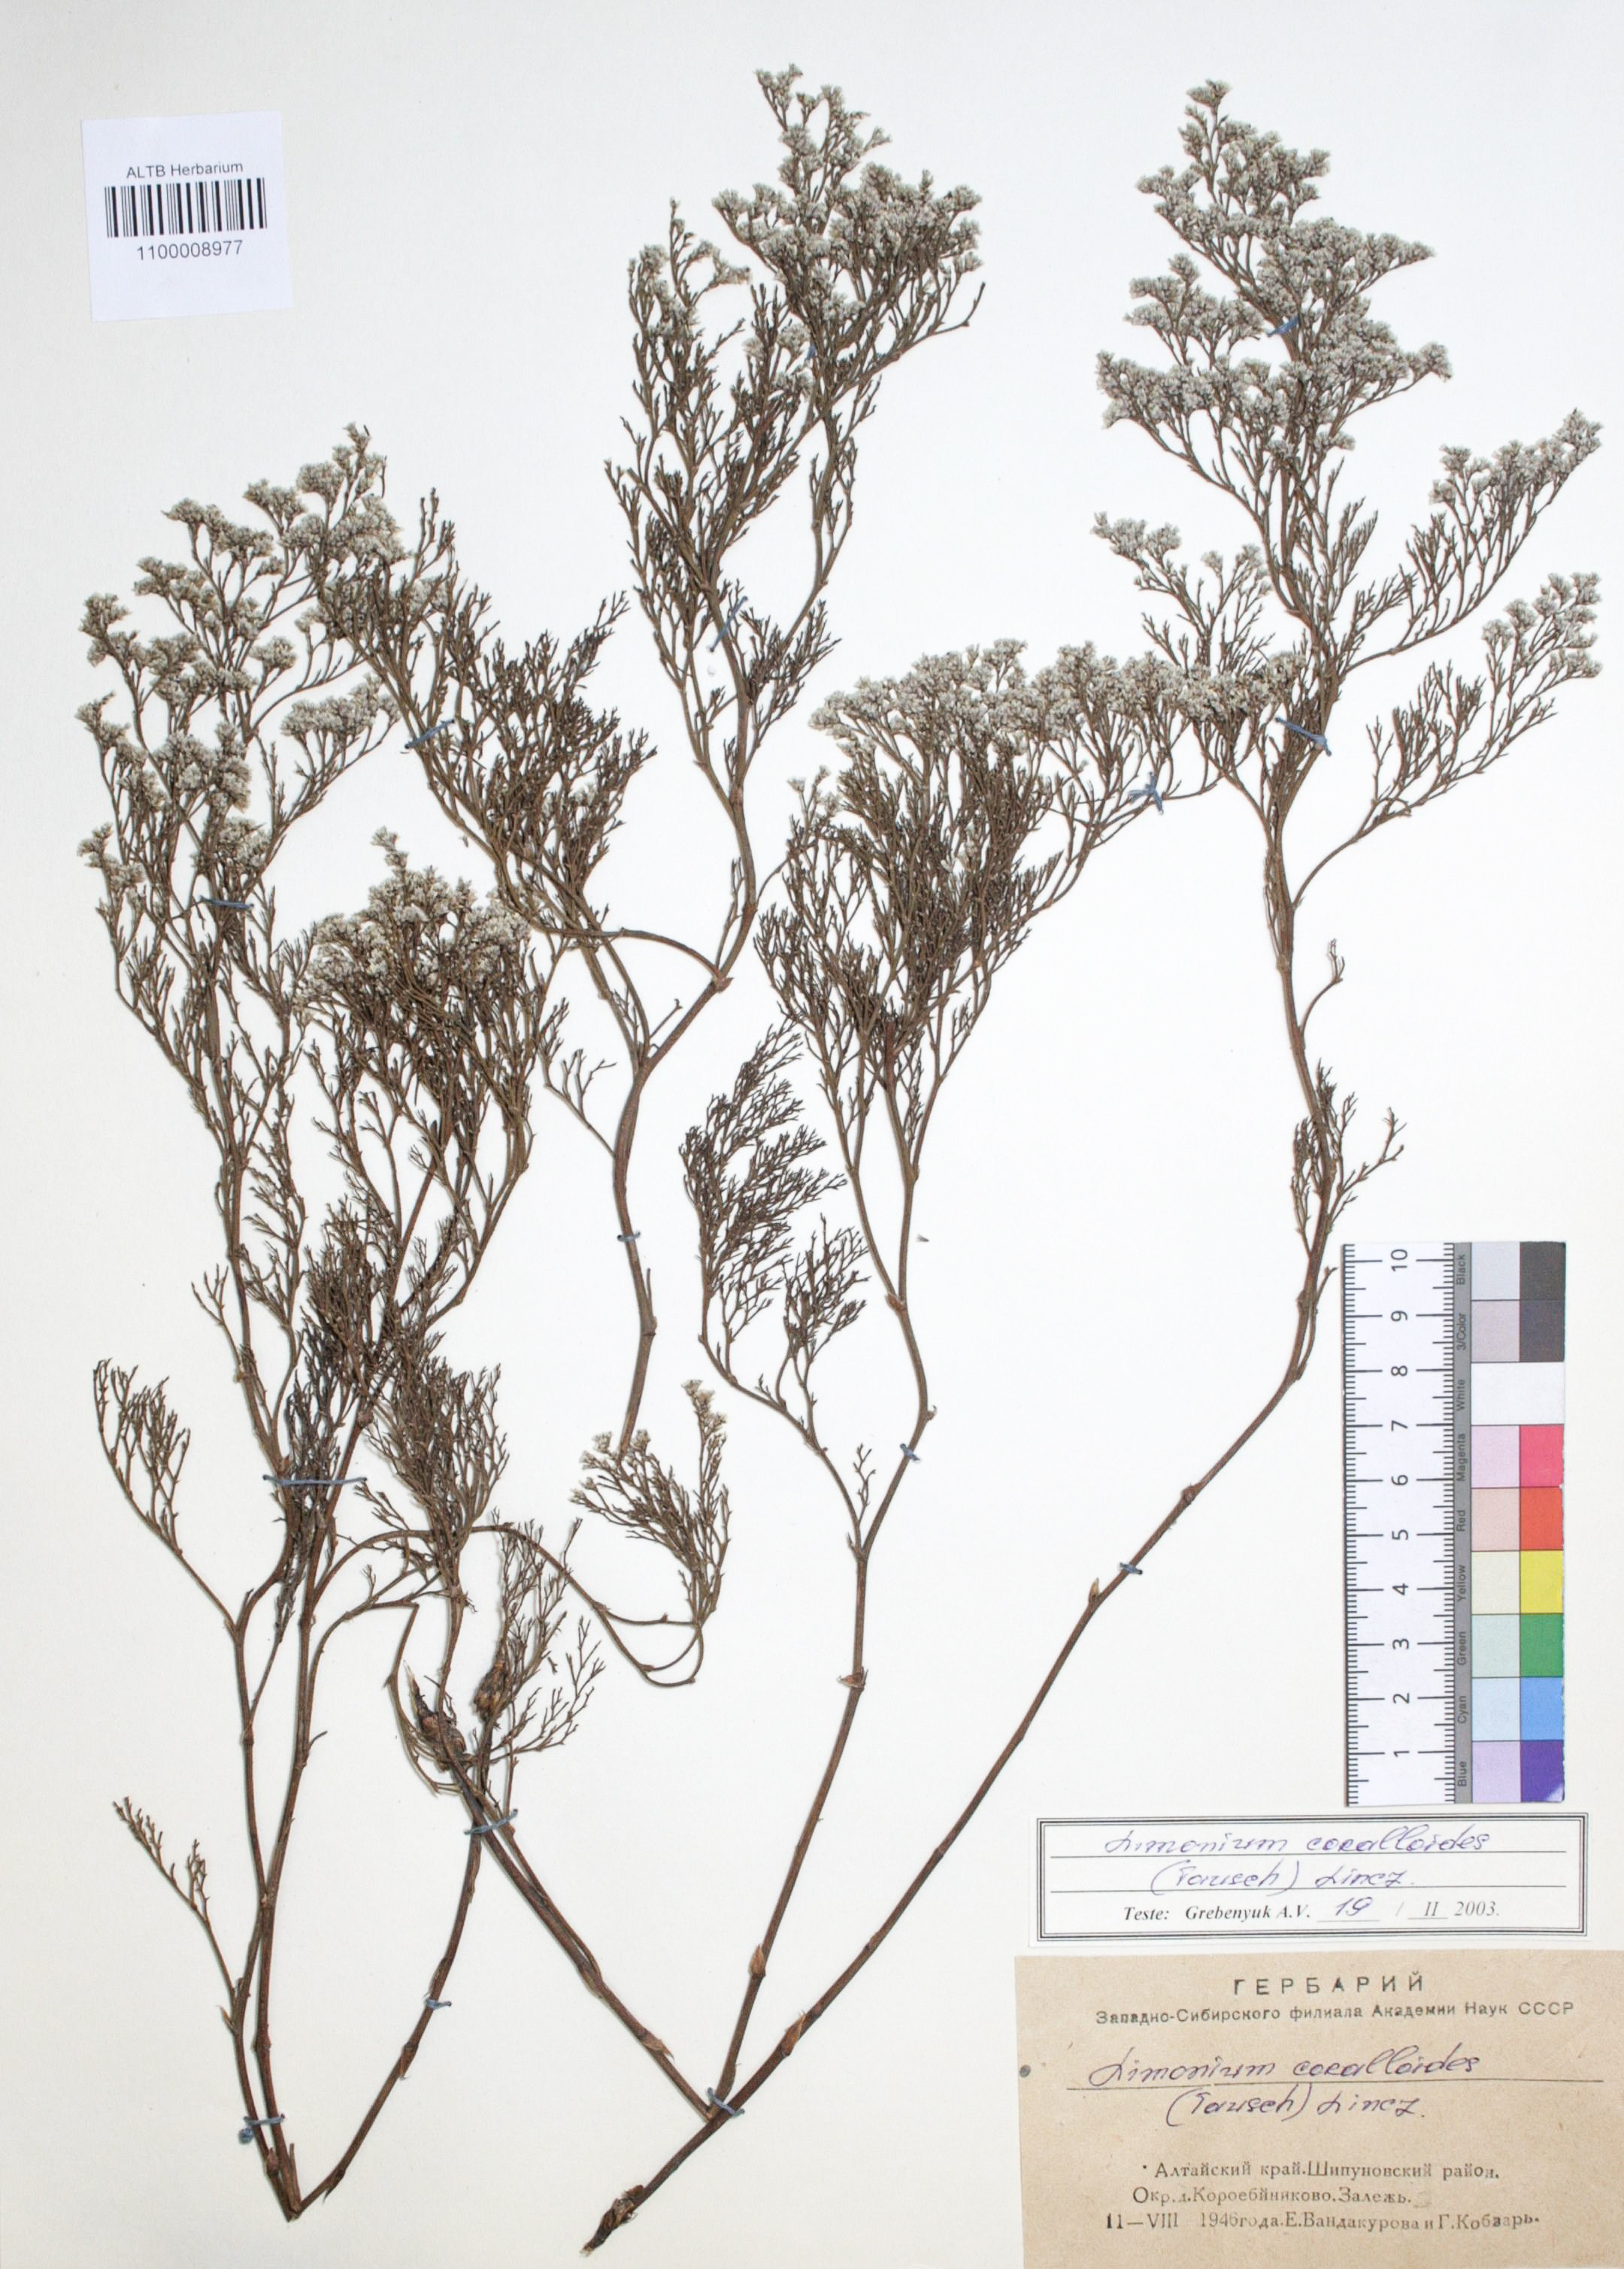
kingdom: Plantae
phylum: Tracheophyta
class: Magnoliopsida
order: Caryophyllales
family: Plumbaginaceae
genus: Limonium
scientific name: Limonium coralloides
